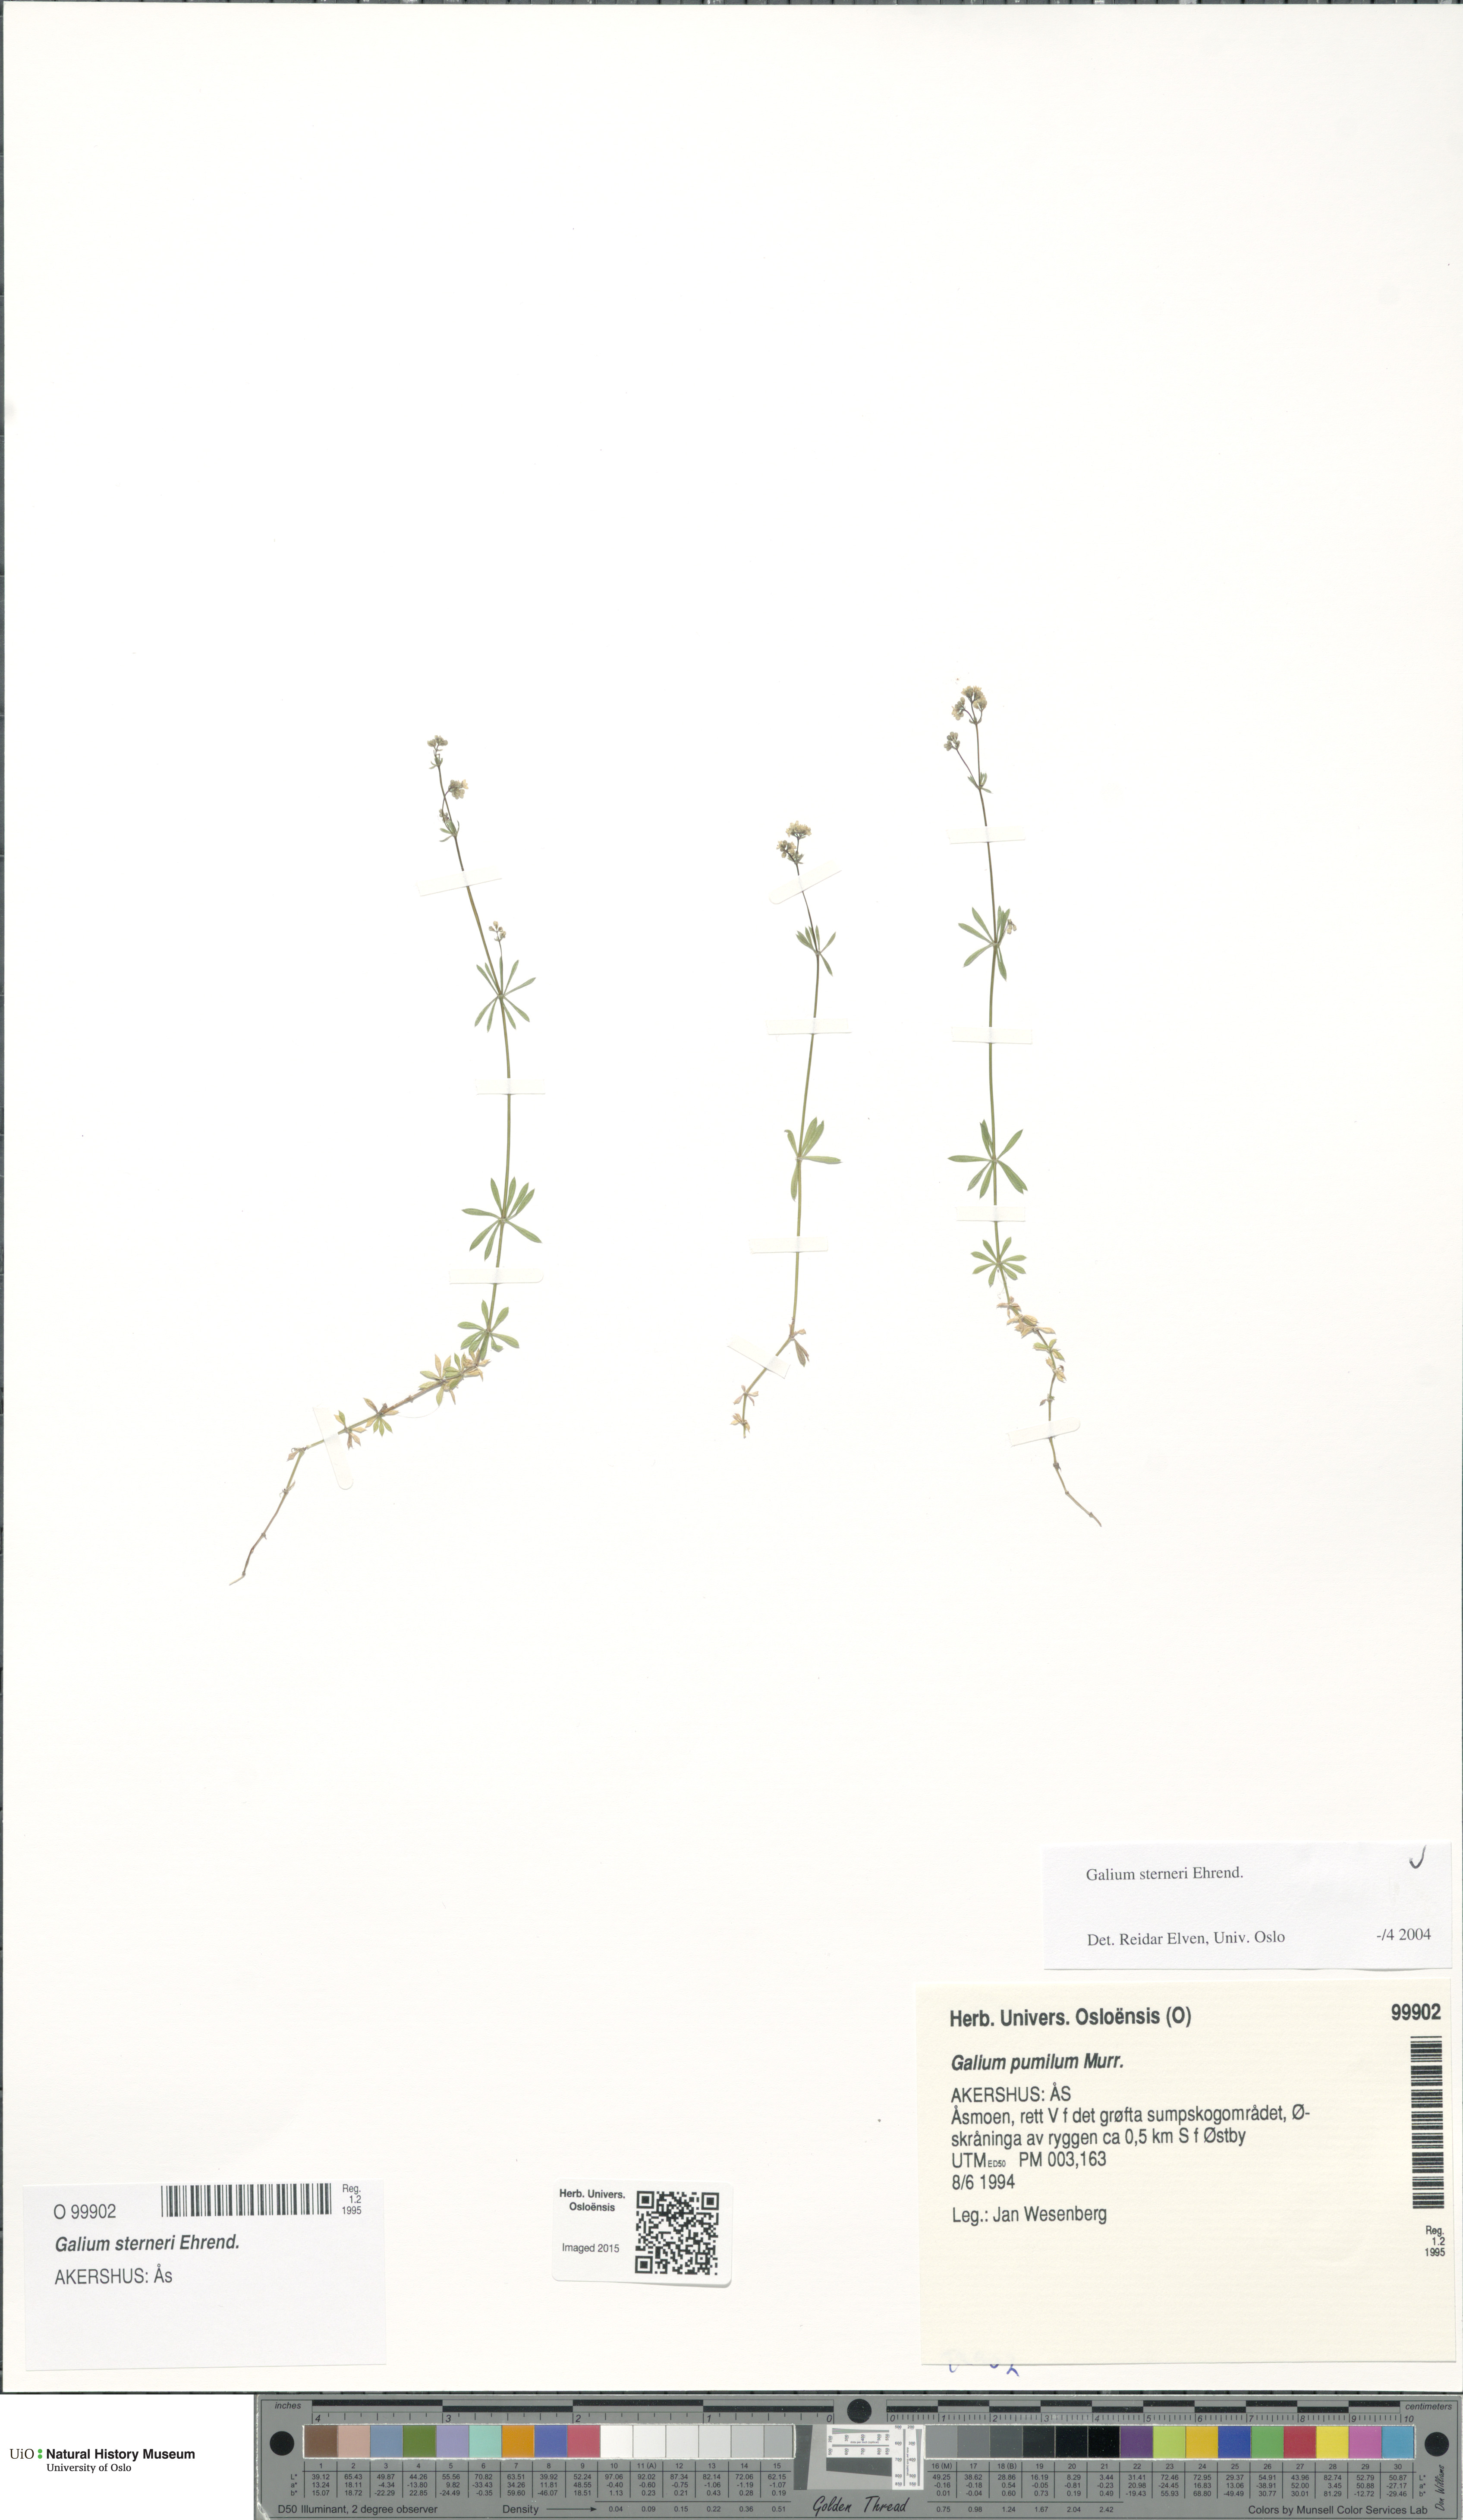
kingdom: Plantae
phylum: Tracheophyta
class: Magnoliopsida
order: Gentianales
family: Rubiaceae
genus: Galium
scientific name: Galium sterneri
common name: Limestone bedstraw
